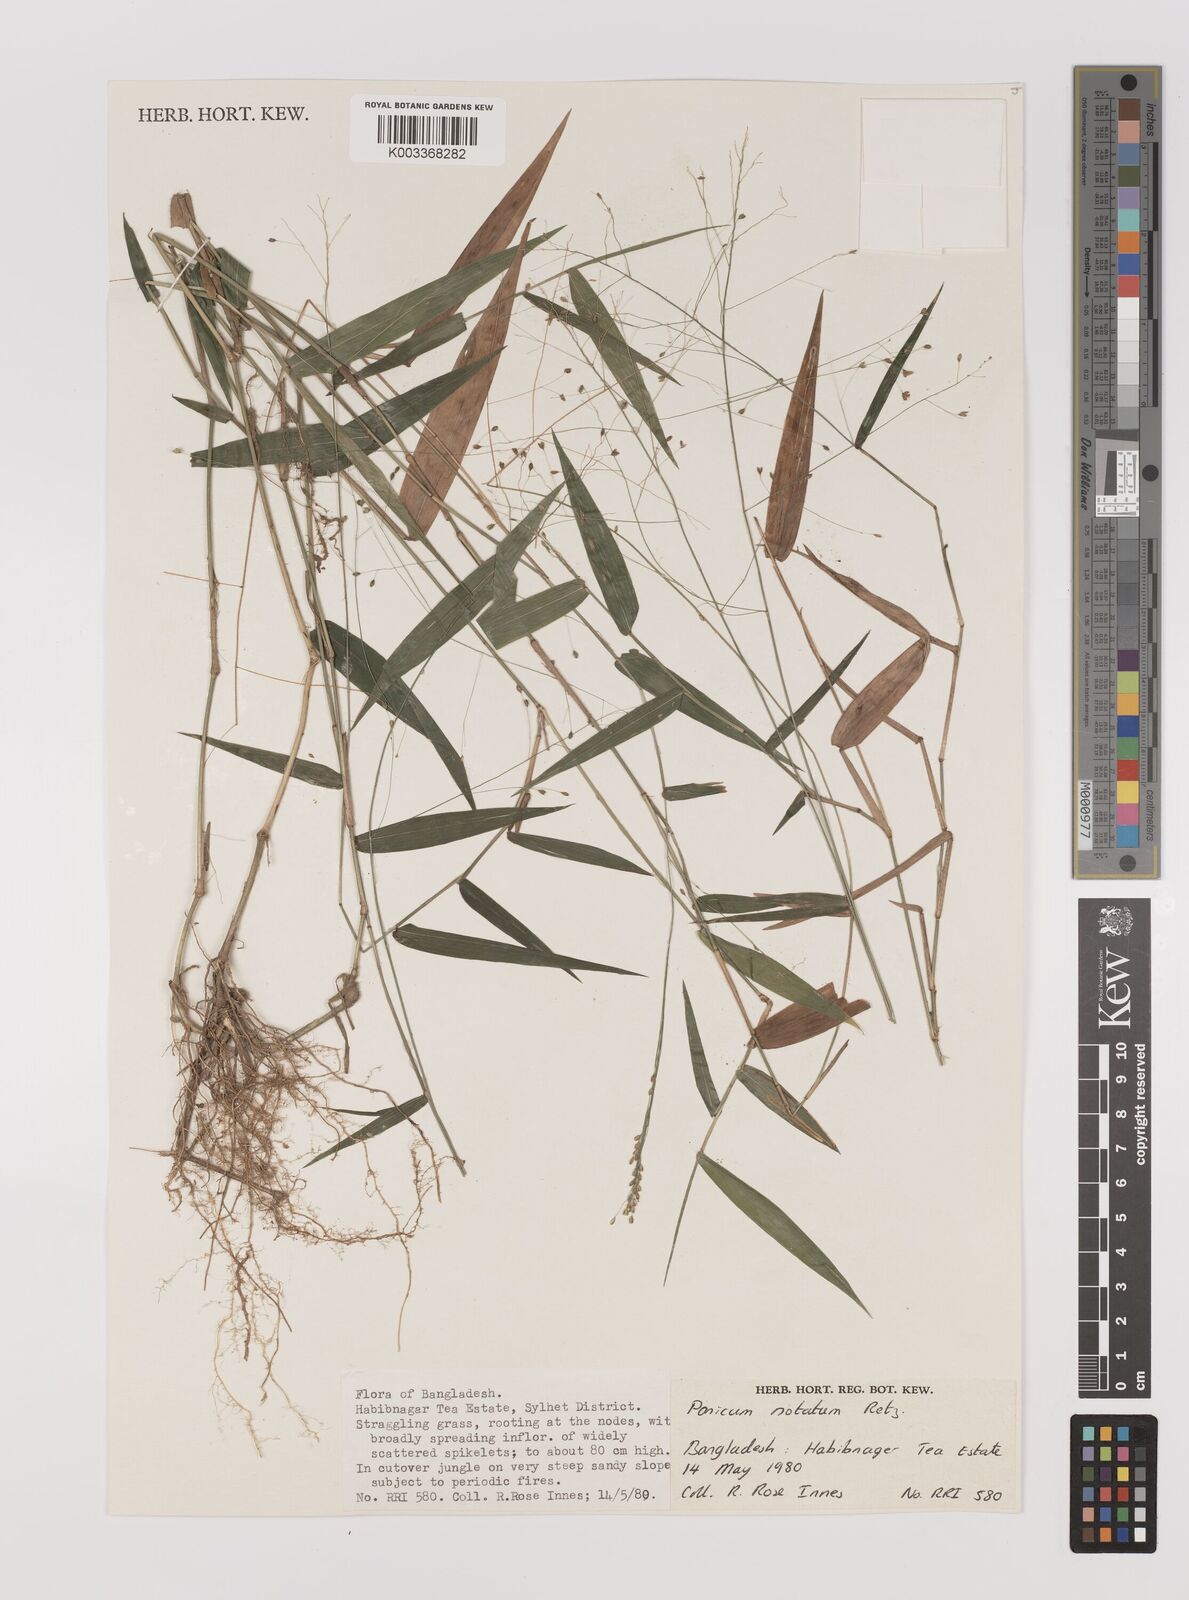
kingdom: Plantae
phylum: Tracheophyta
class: Liliopsida
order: Poales
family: Poaceae
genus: Panicum
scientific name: Panicum notatum
